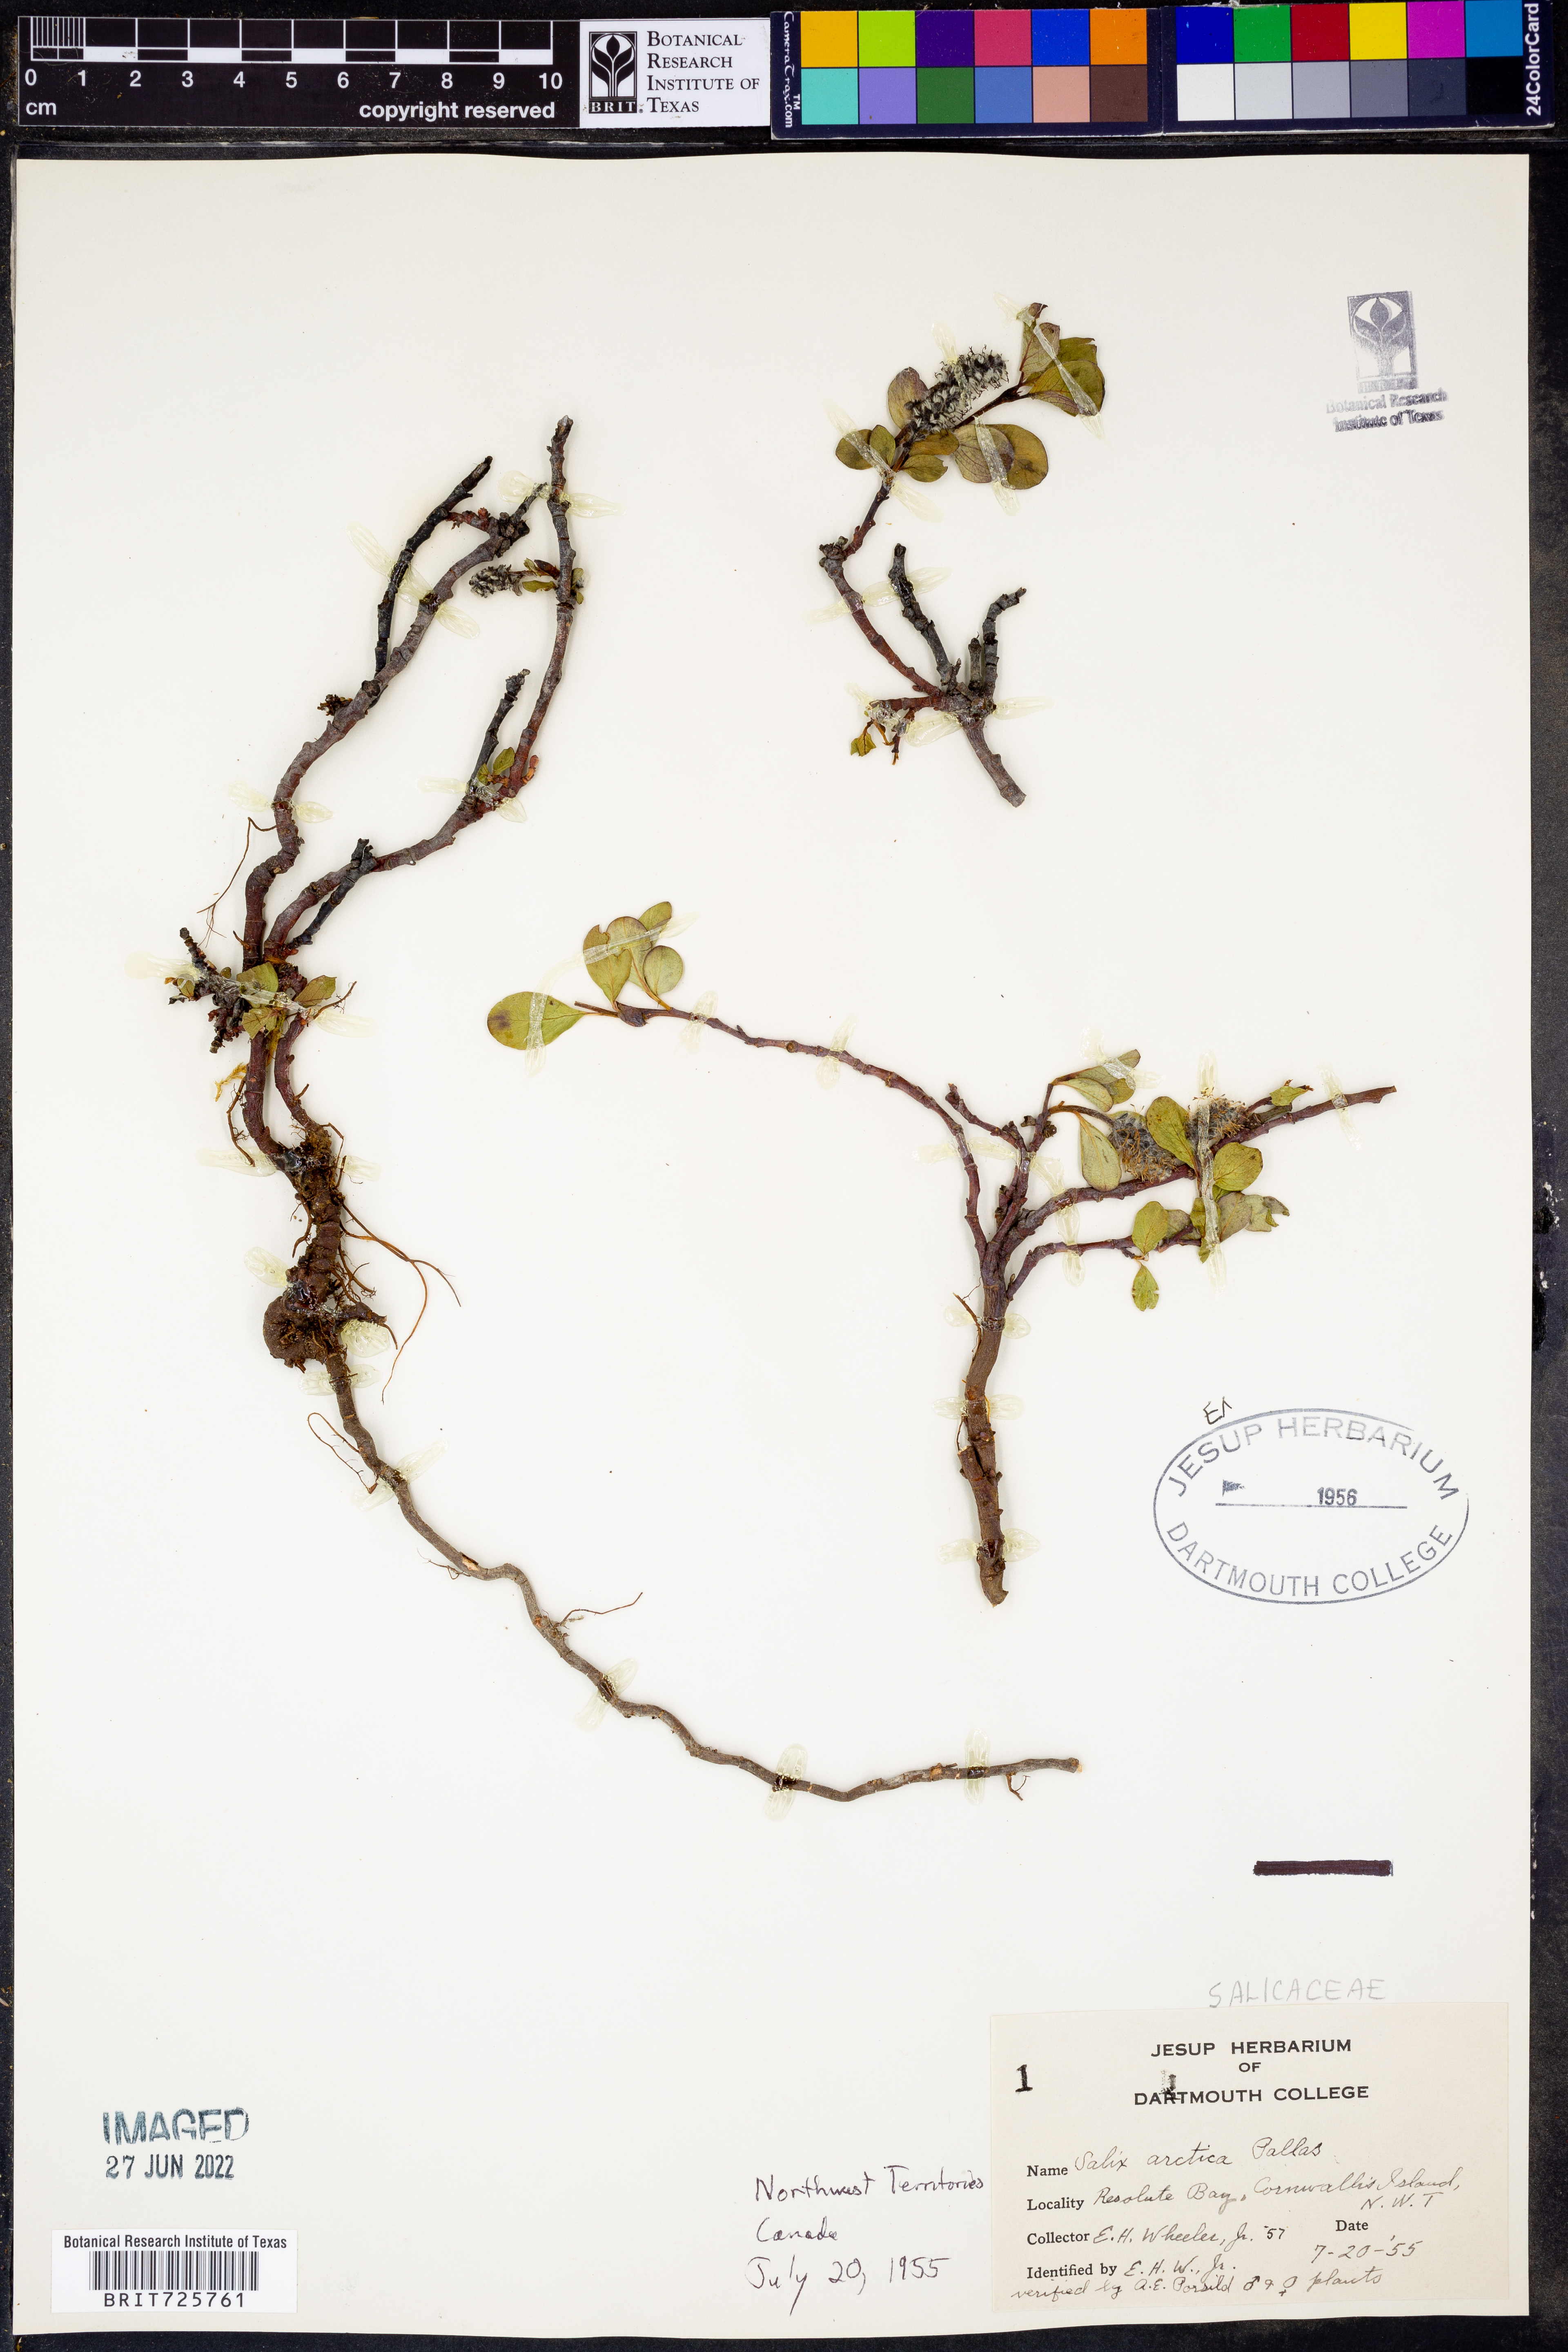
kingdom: Plantae
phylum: Tracheophyta
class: Magnoliopsida
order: Malpighiales
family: Salicaceae
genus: Salix
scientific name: Salix
